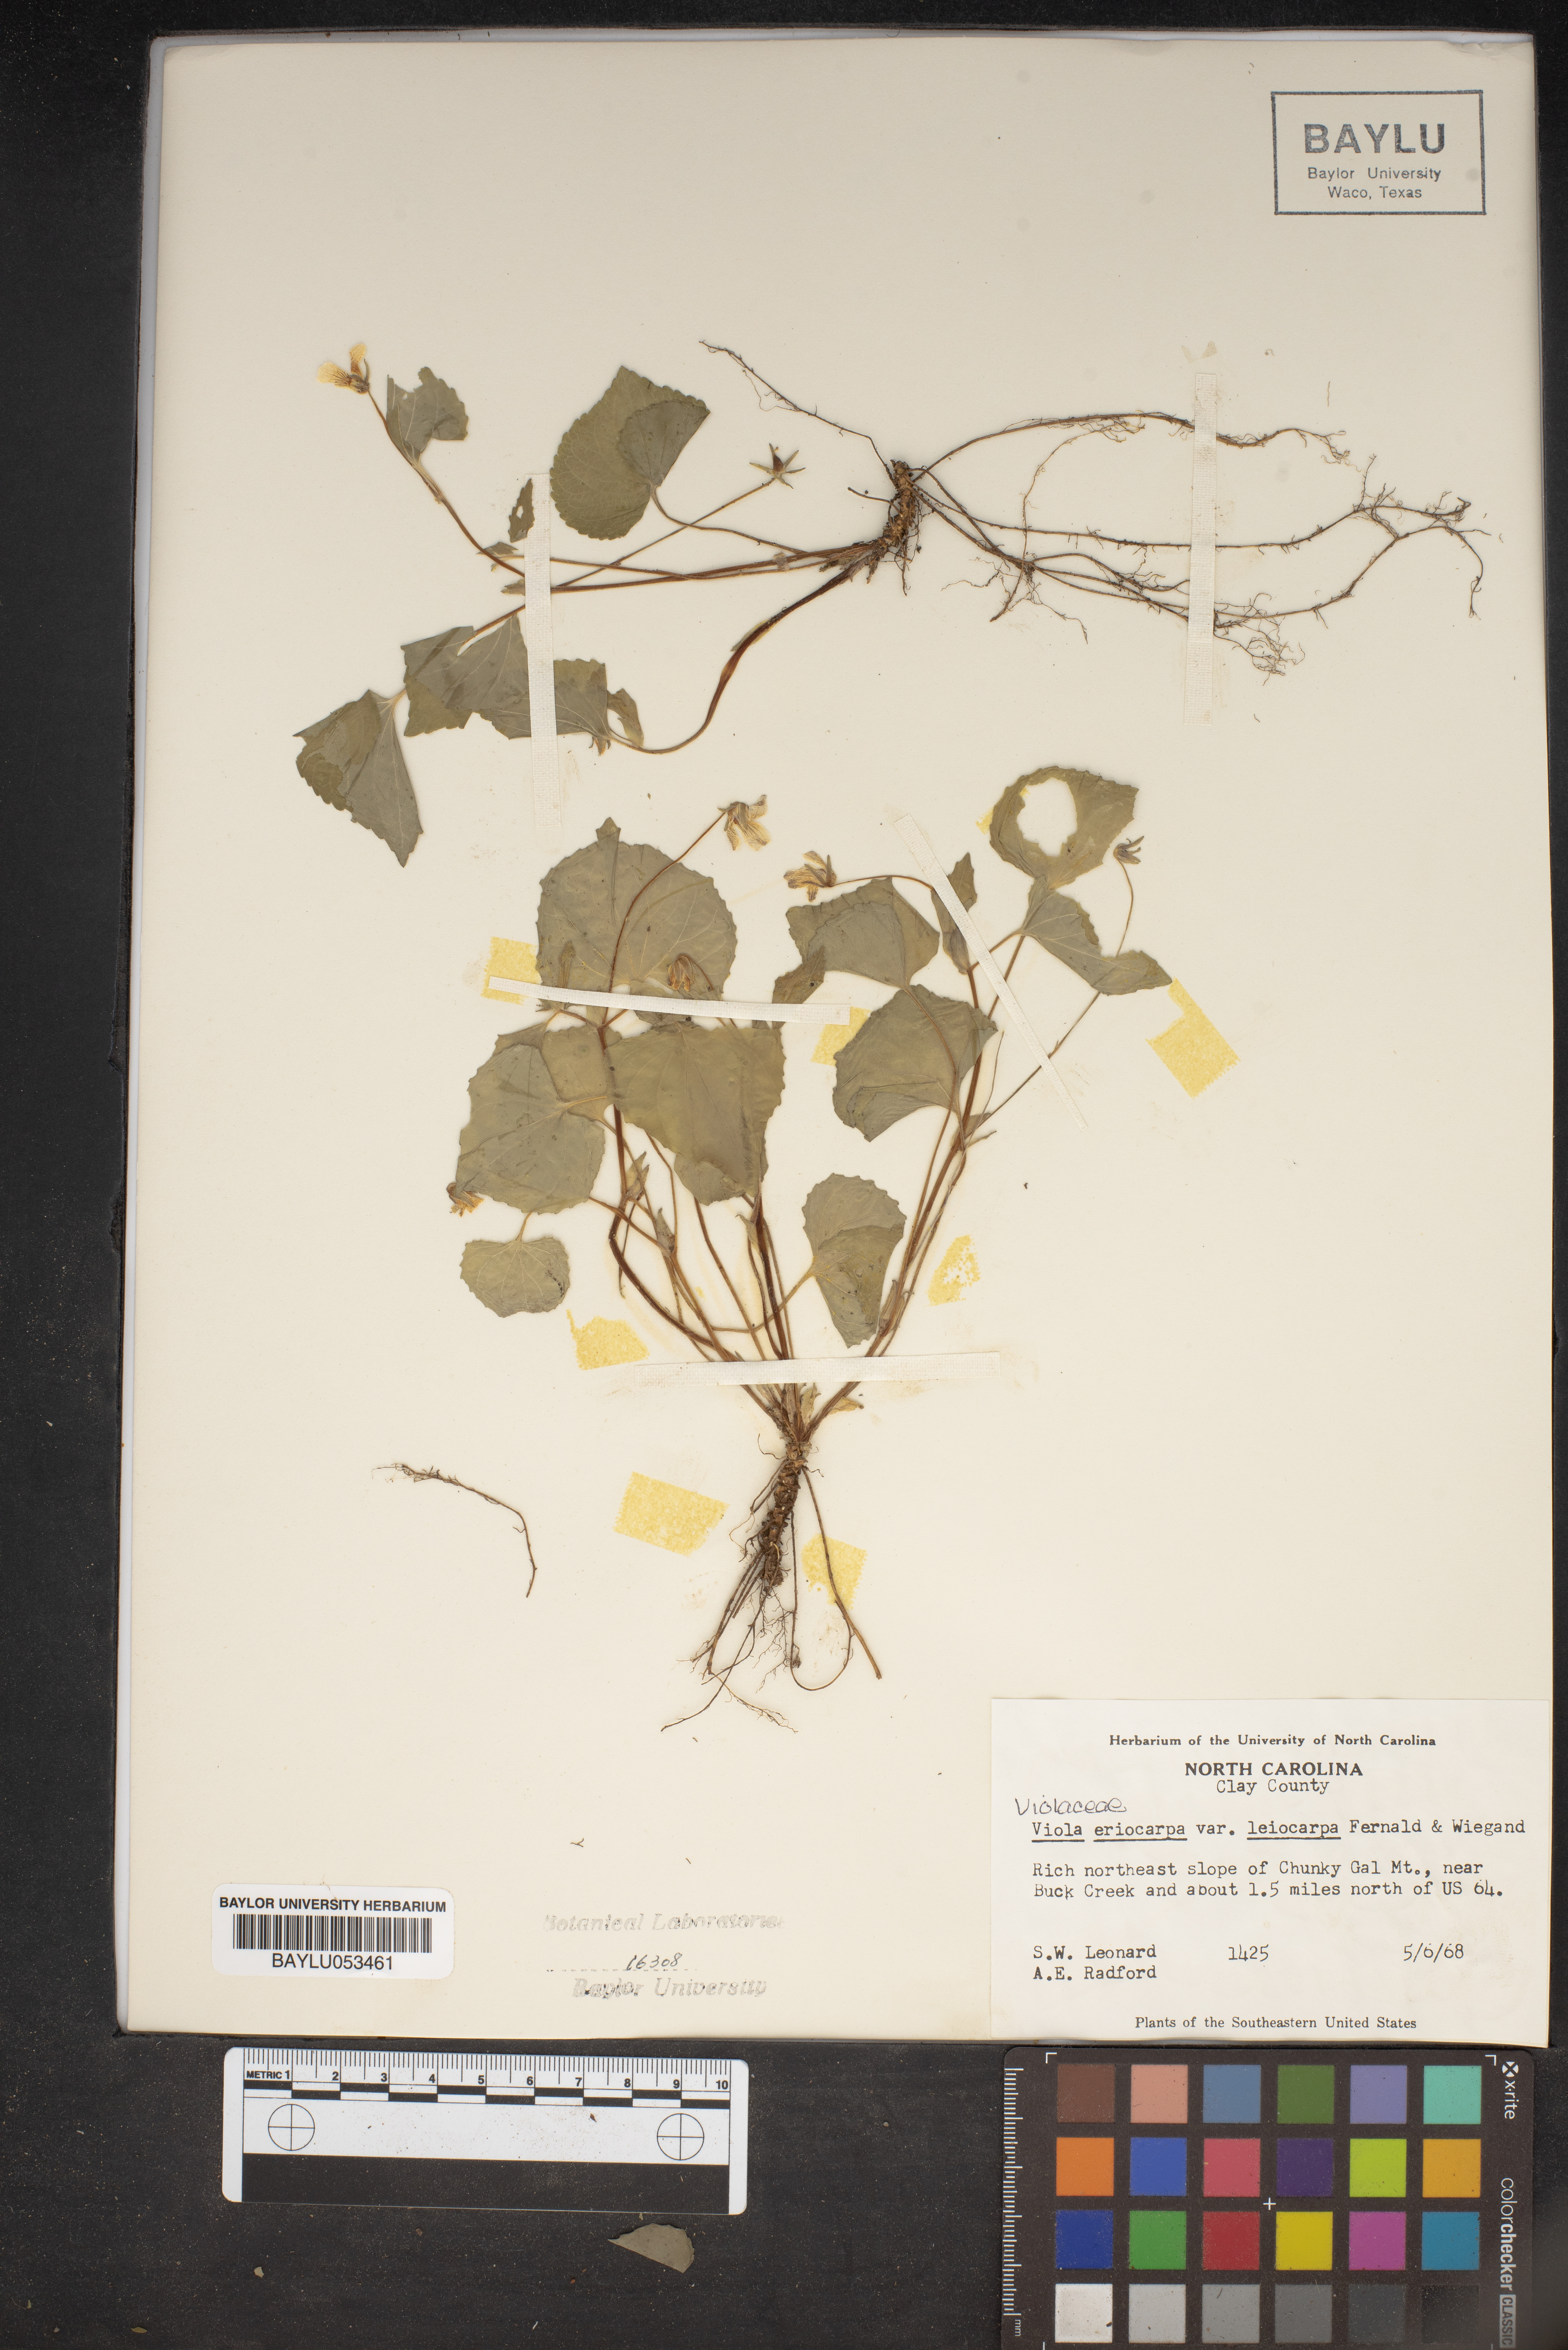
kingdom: Plantae
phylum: Tracheophyta
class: Magnoliopsida
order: Malpighiales
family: Violaceae
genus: Viola
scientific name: Viola eriocarpa
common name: Smooth yellow violet
